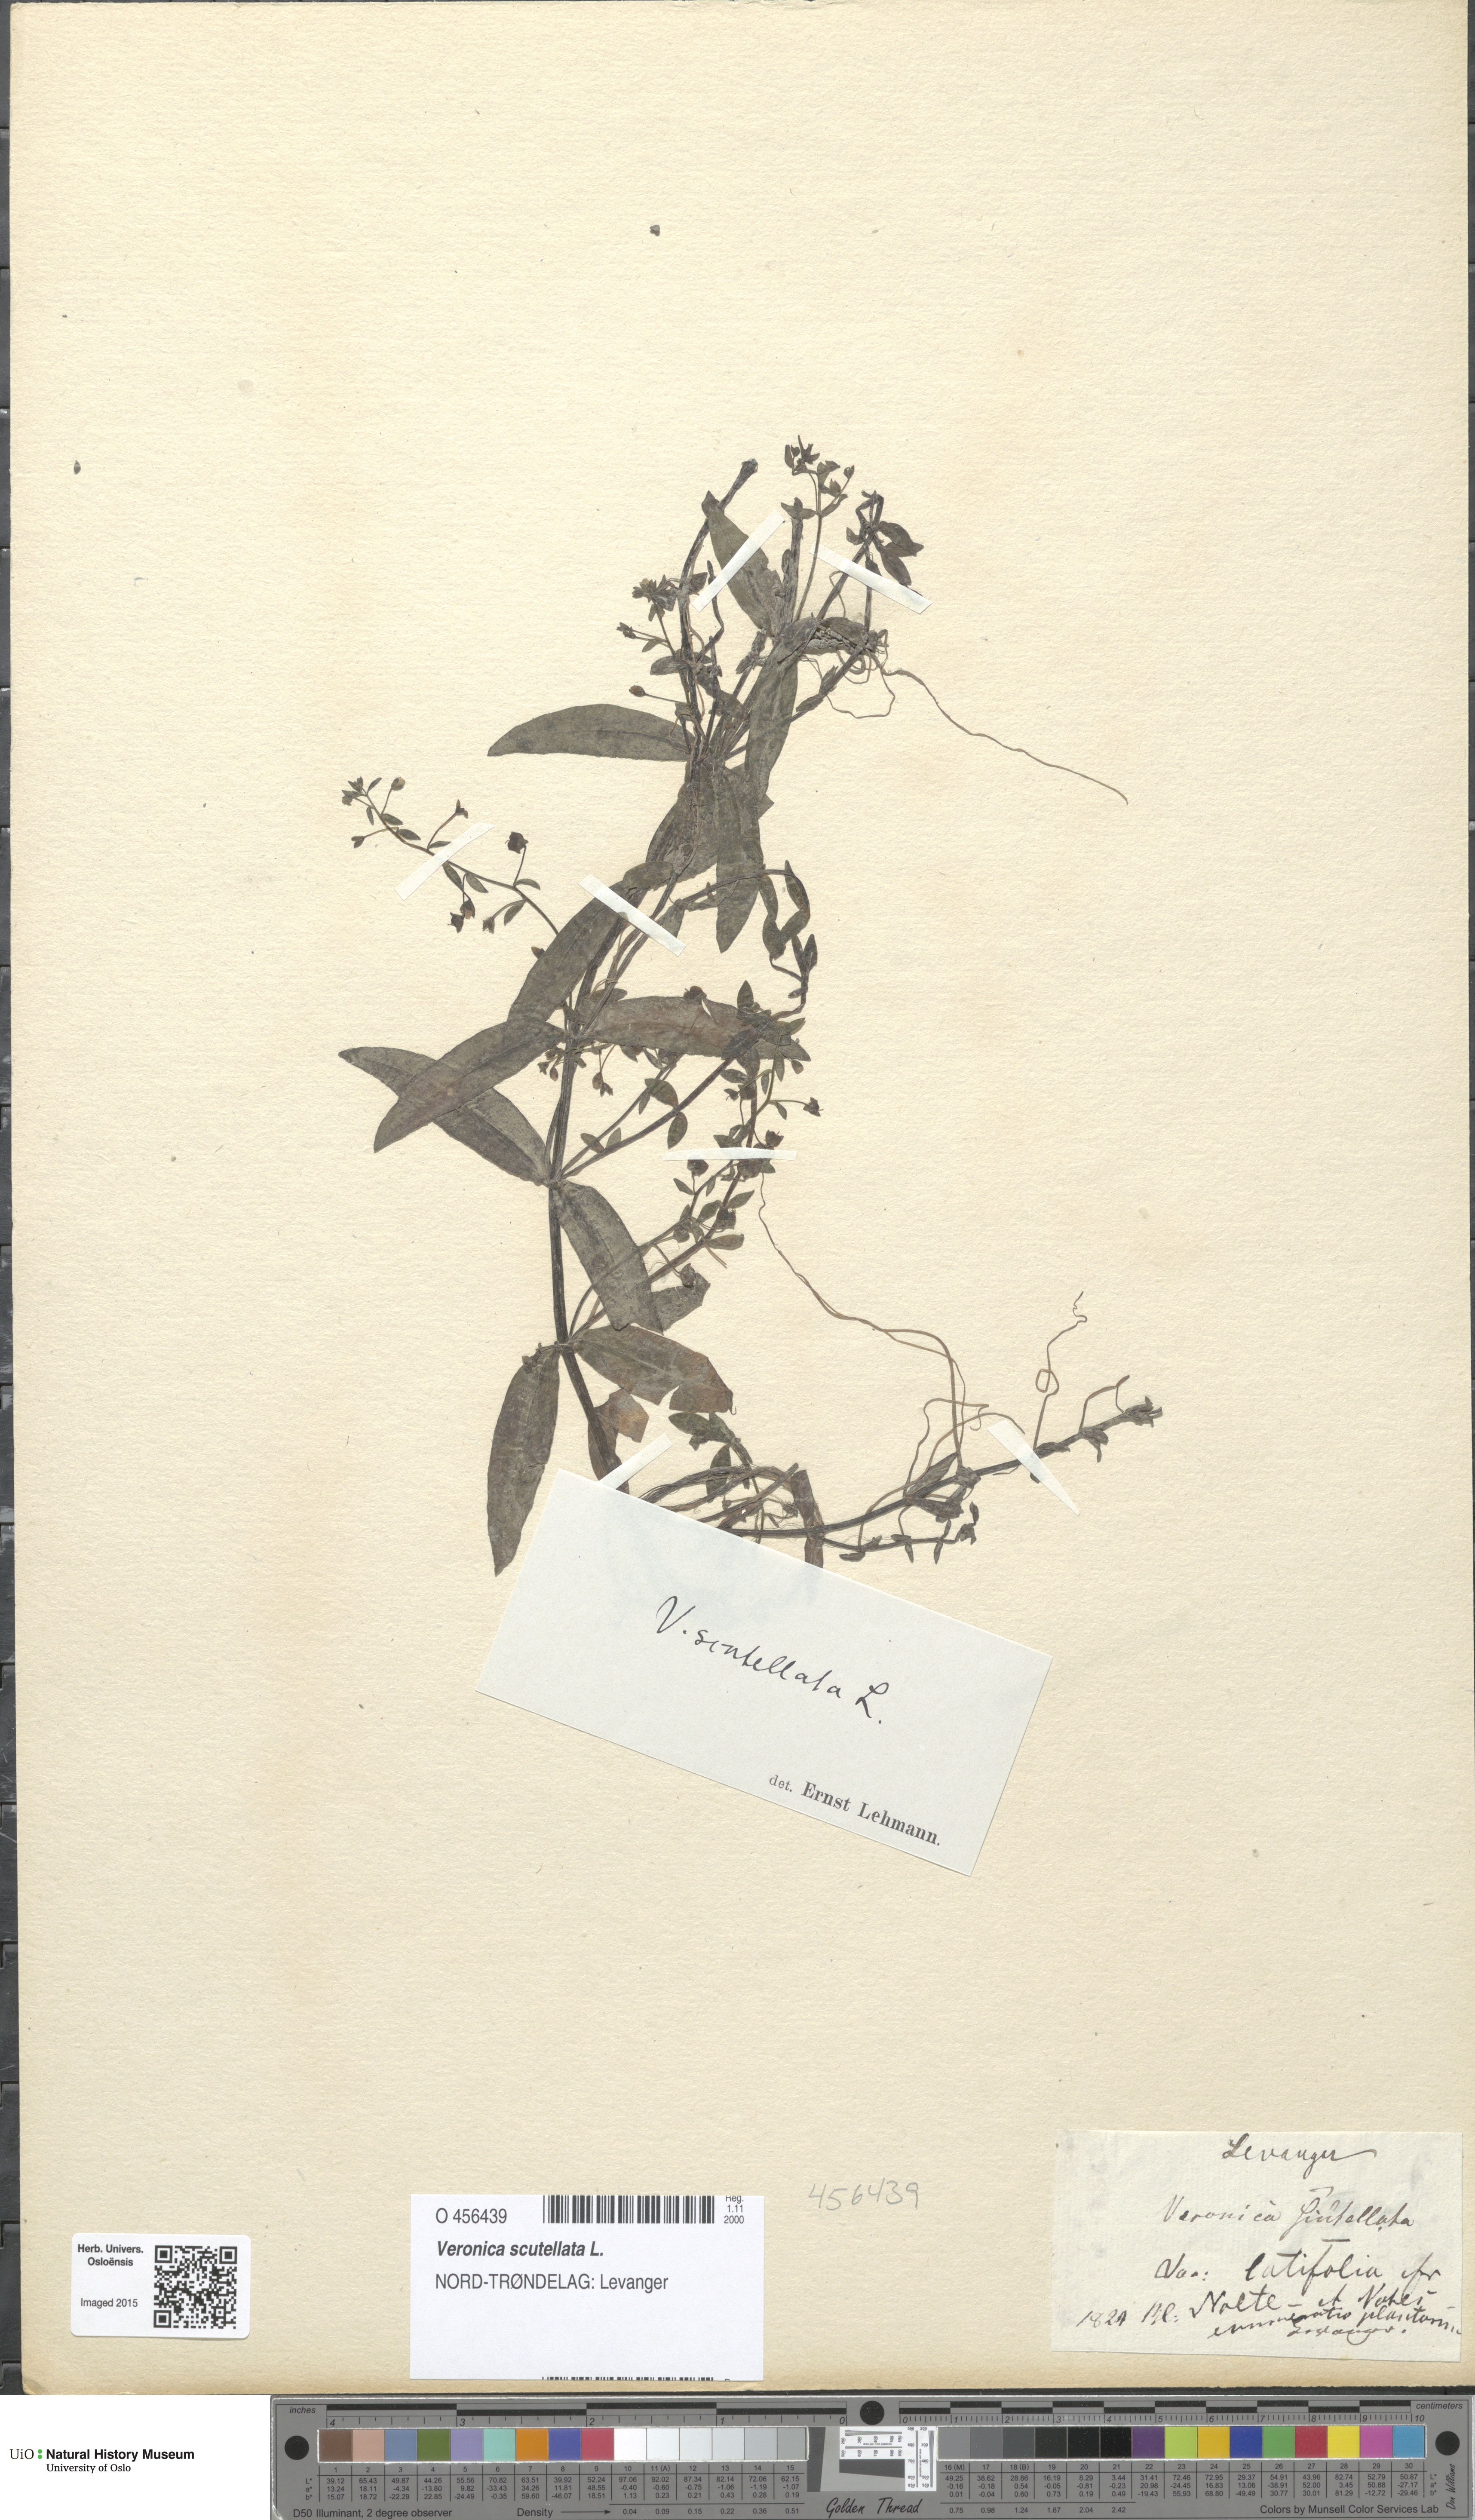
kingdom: Plantae
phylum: Tracheophyta
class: Magnoliopsida
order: Lamiales
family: Plantaginaceae
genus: Veronica
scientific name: Veronica scutellata
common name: Marsh speedwell
